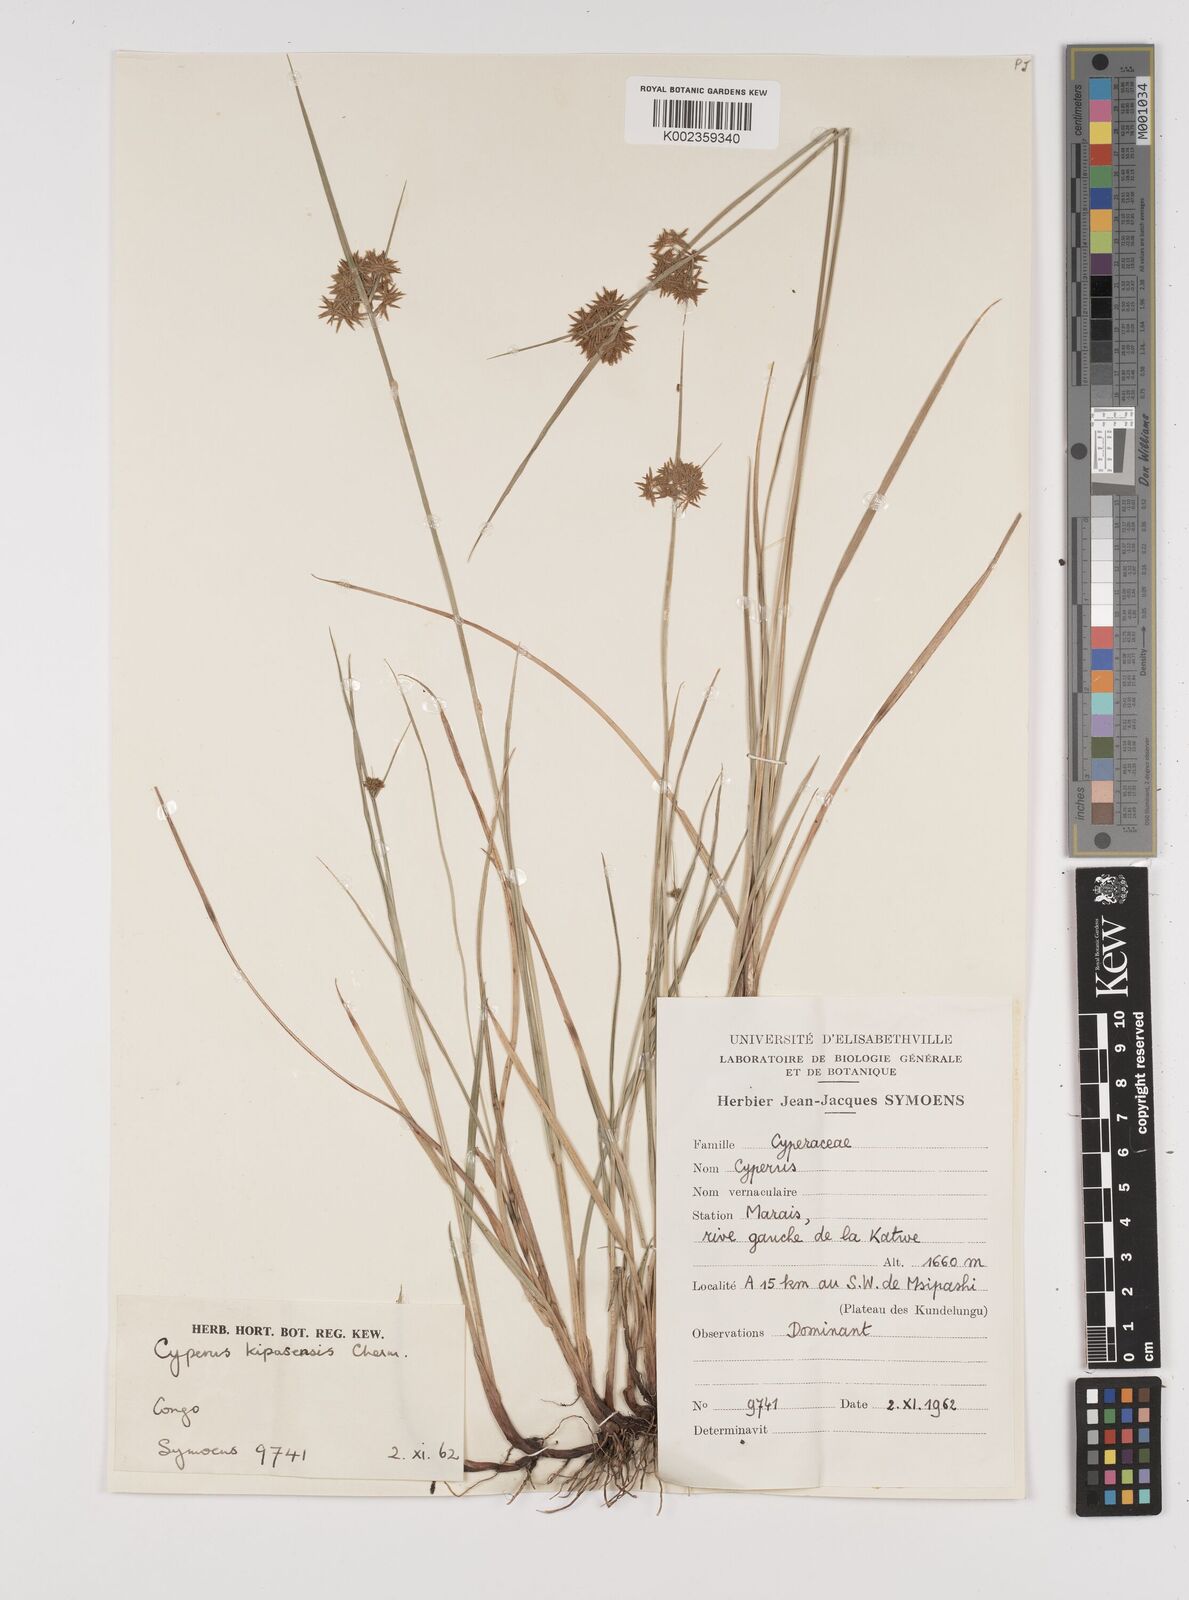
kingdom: Plantae
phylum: Tracheophyta
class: Liliopsida
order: Poales
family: Cyperaceae
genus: Cyperus
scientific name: Cyperus kipasensis
